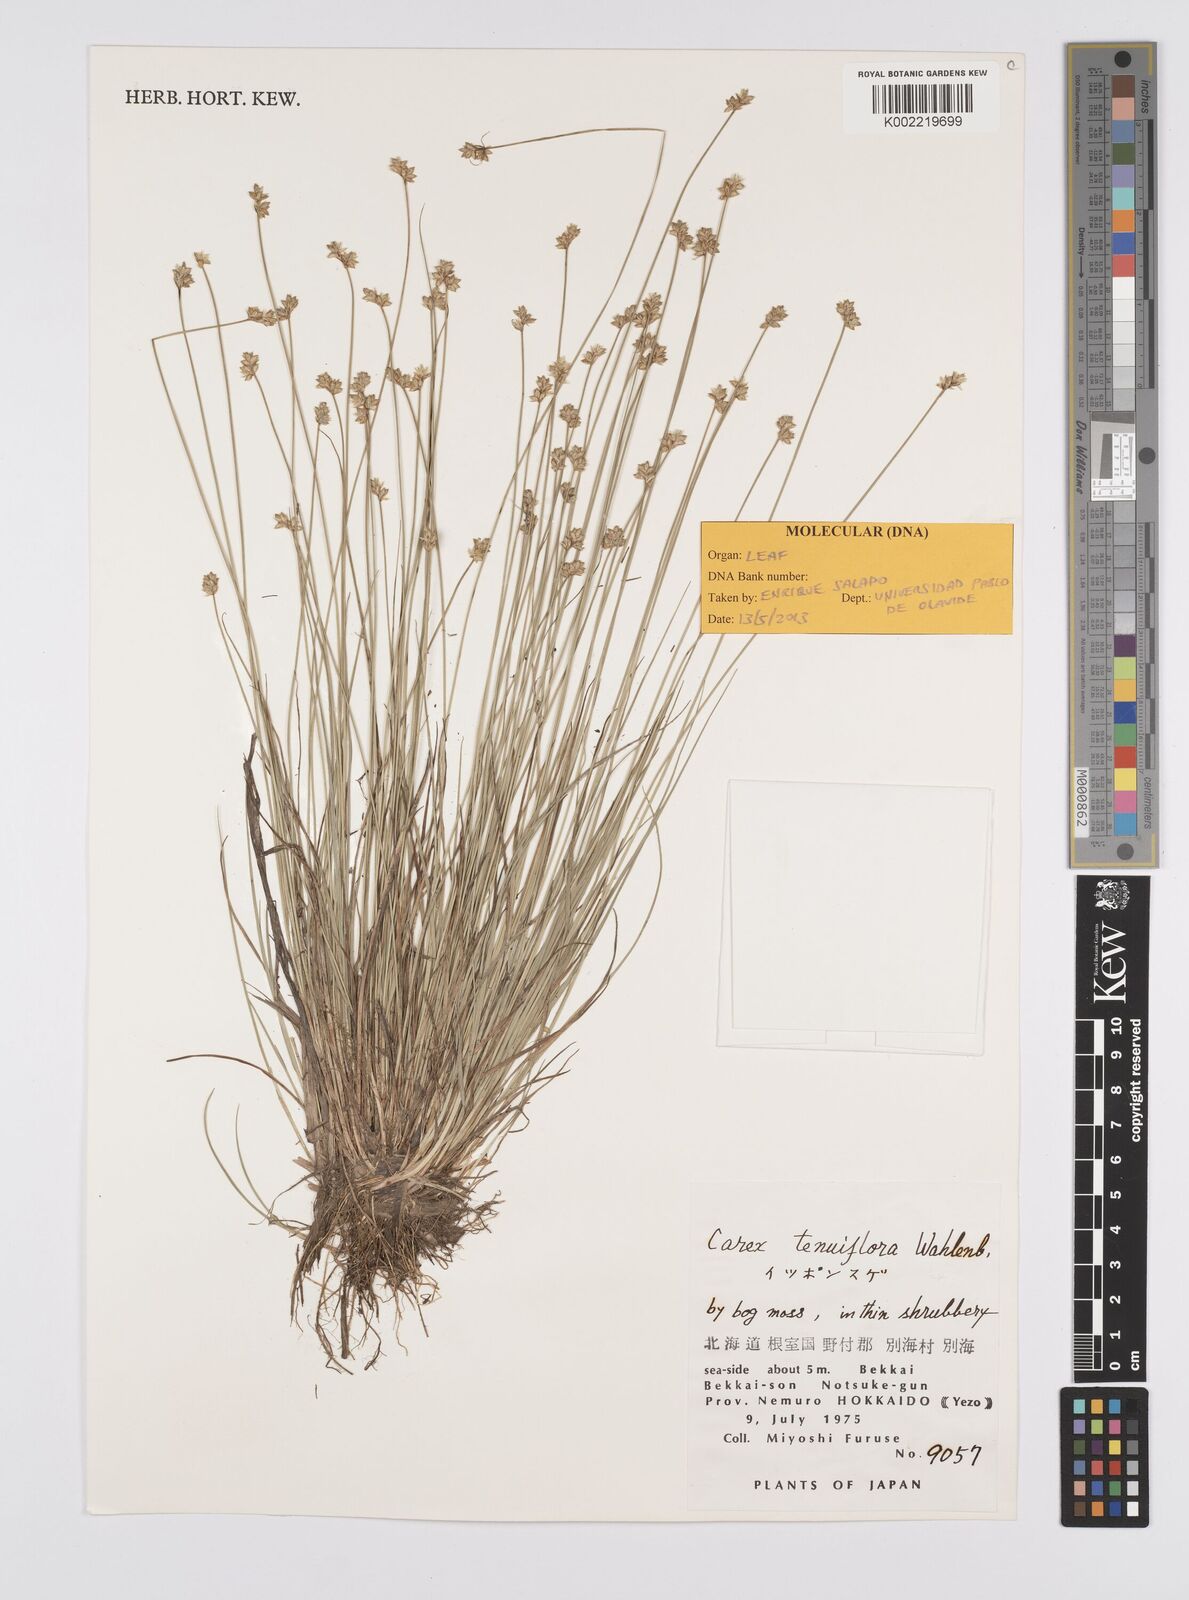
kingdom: Plantae
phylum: Tracheophyta
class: Liliopsida
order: Poales
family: Cyperaceae
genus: Carex
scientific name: Carex tenuiflora
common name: Sparse-flowered sedge
